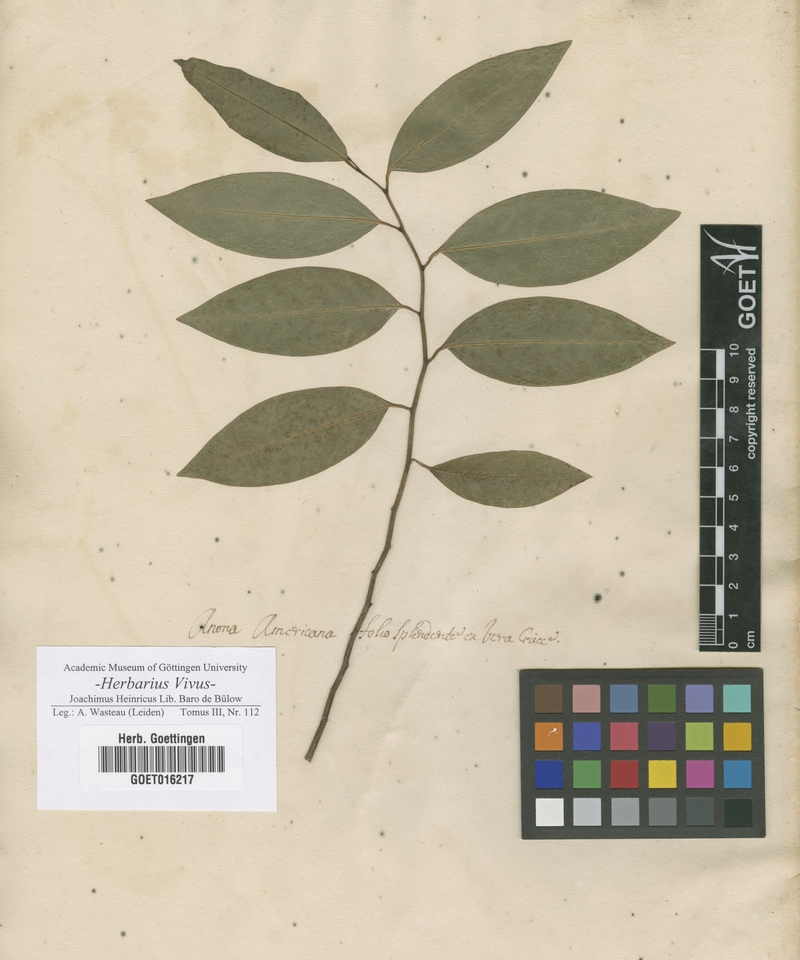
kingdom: Plantae
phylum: Tracheophyta
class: Magnoliopsida
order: Magnoliales
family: Annonaceae
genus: Annona
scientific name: Annona
